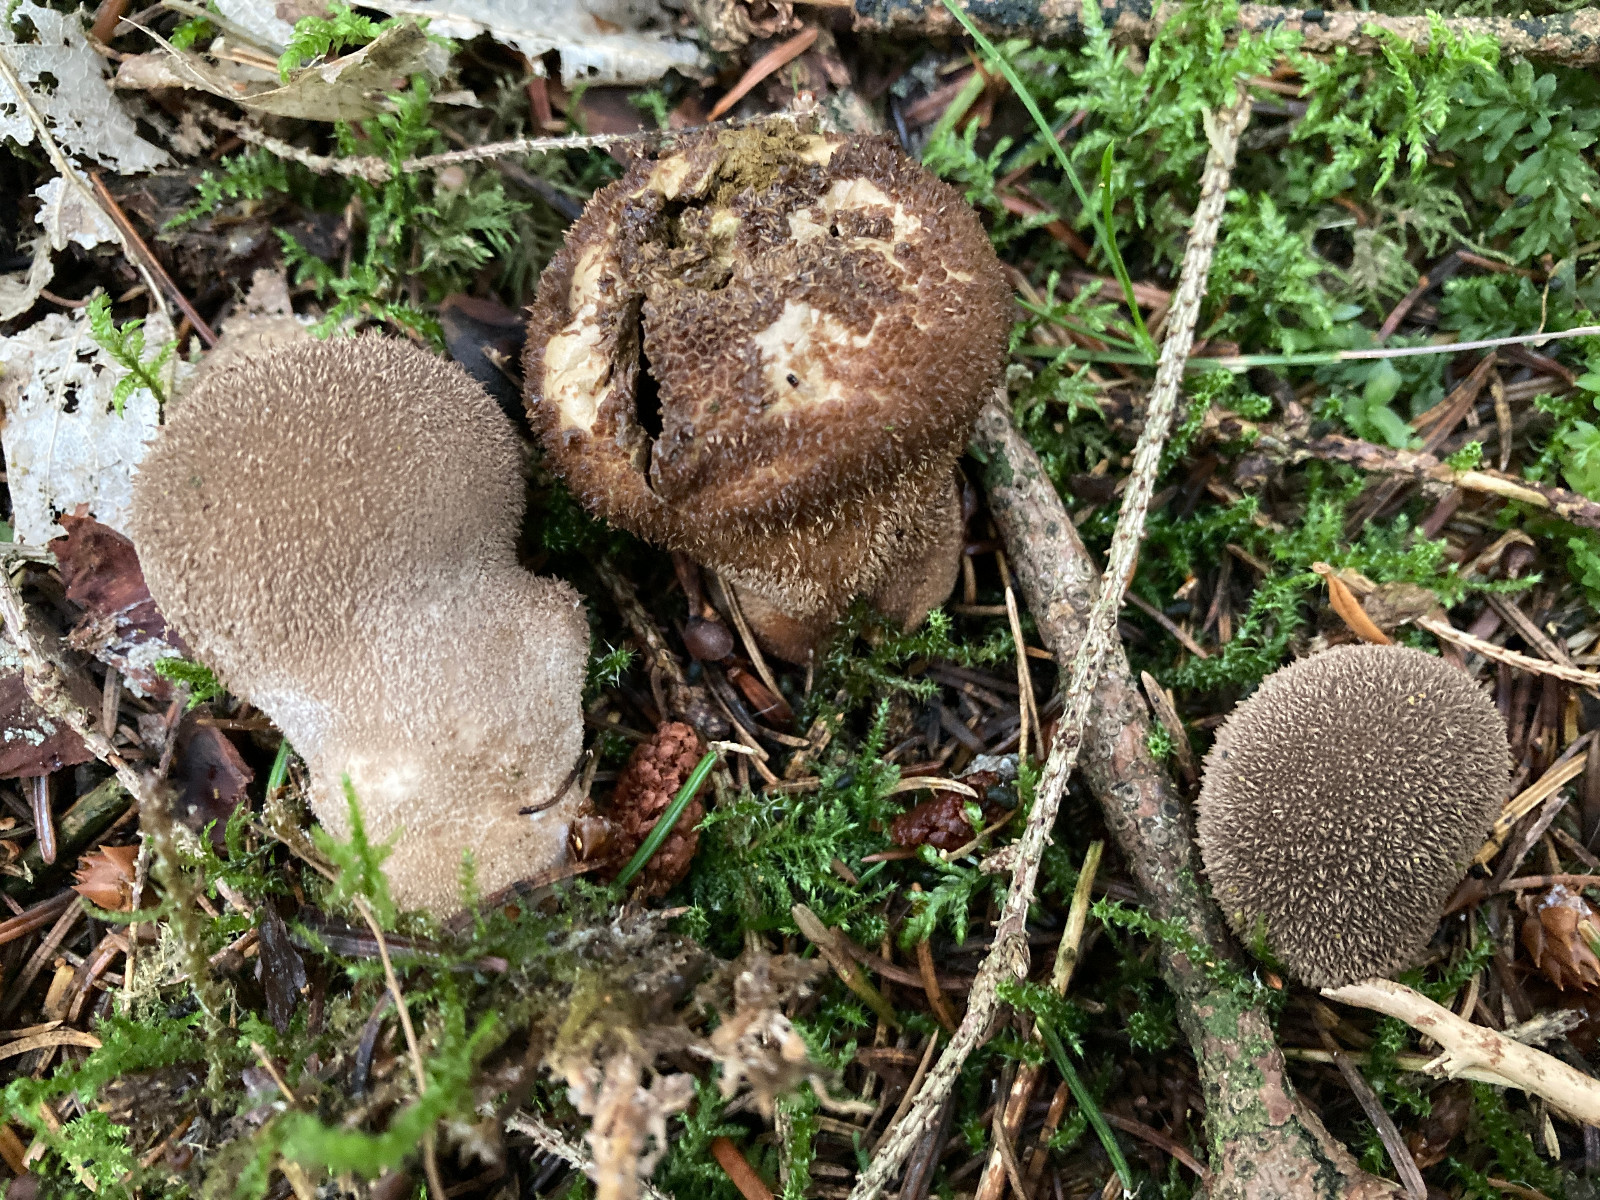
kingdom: Fungi
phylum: Basidiomycota
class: Agaricomycetes
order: Agaricales
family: Lycoperdaceae
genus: Lycoperdon
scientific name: Lycoperdon nigrescens
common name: sortagtig støvbold
